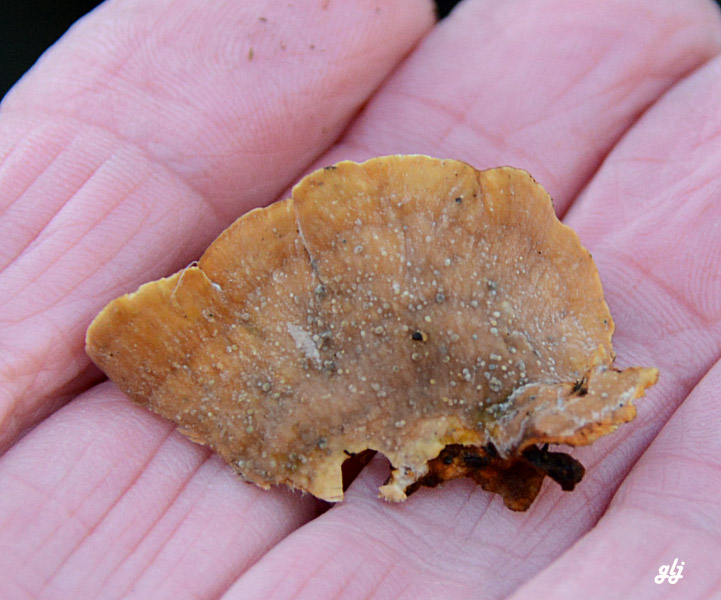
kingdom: Fungi
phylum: Basidiomycota
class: Agaricomycetes
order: Russulales
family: Stereaceae
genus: Stereum
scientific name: Stereum subtomentosum
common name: smuk lædersvamp
